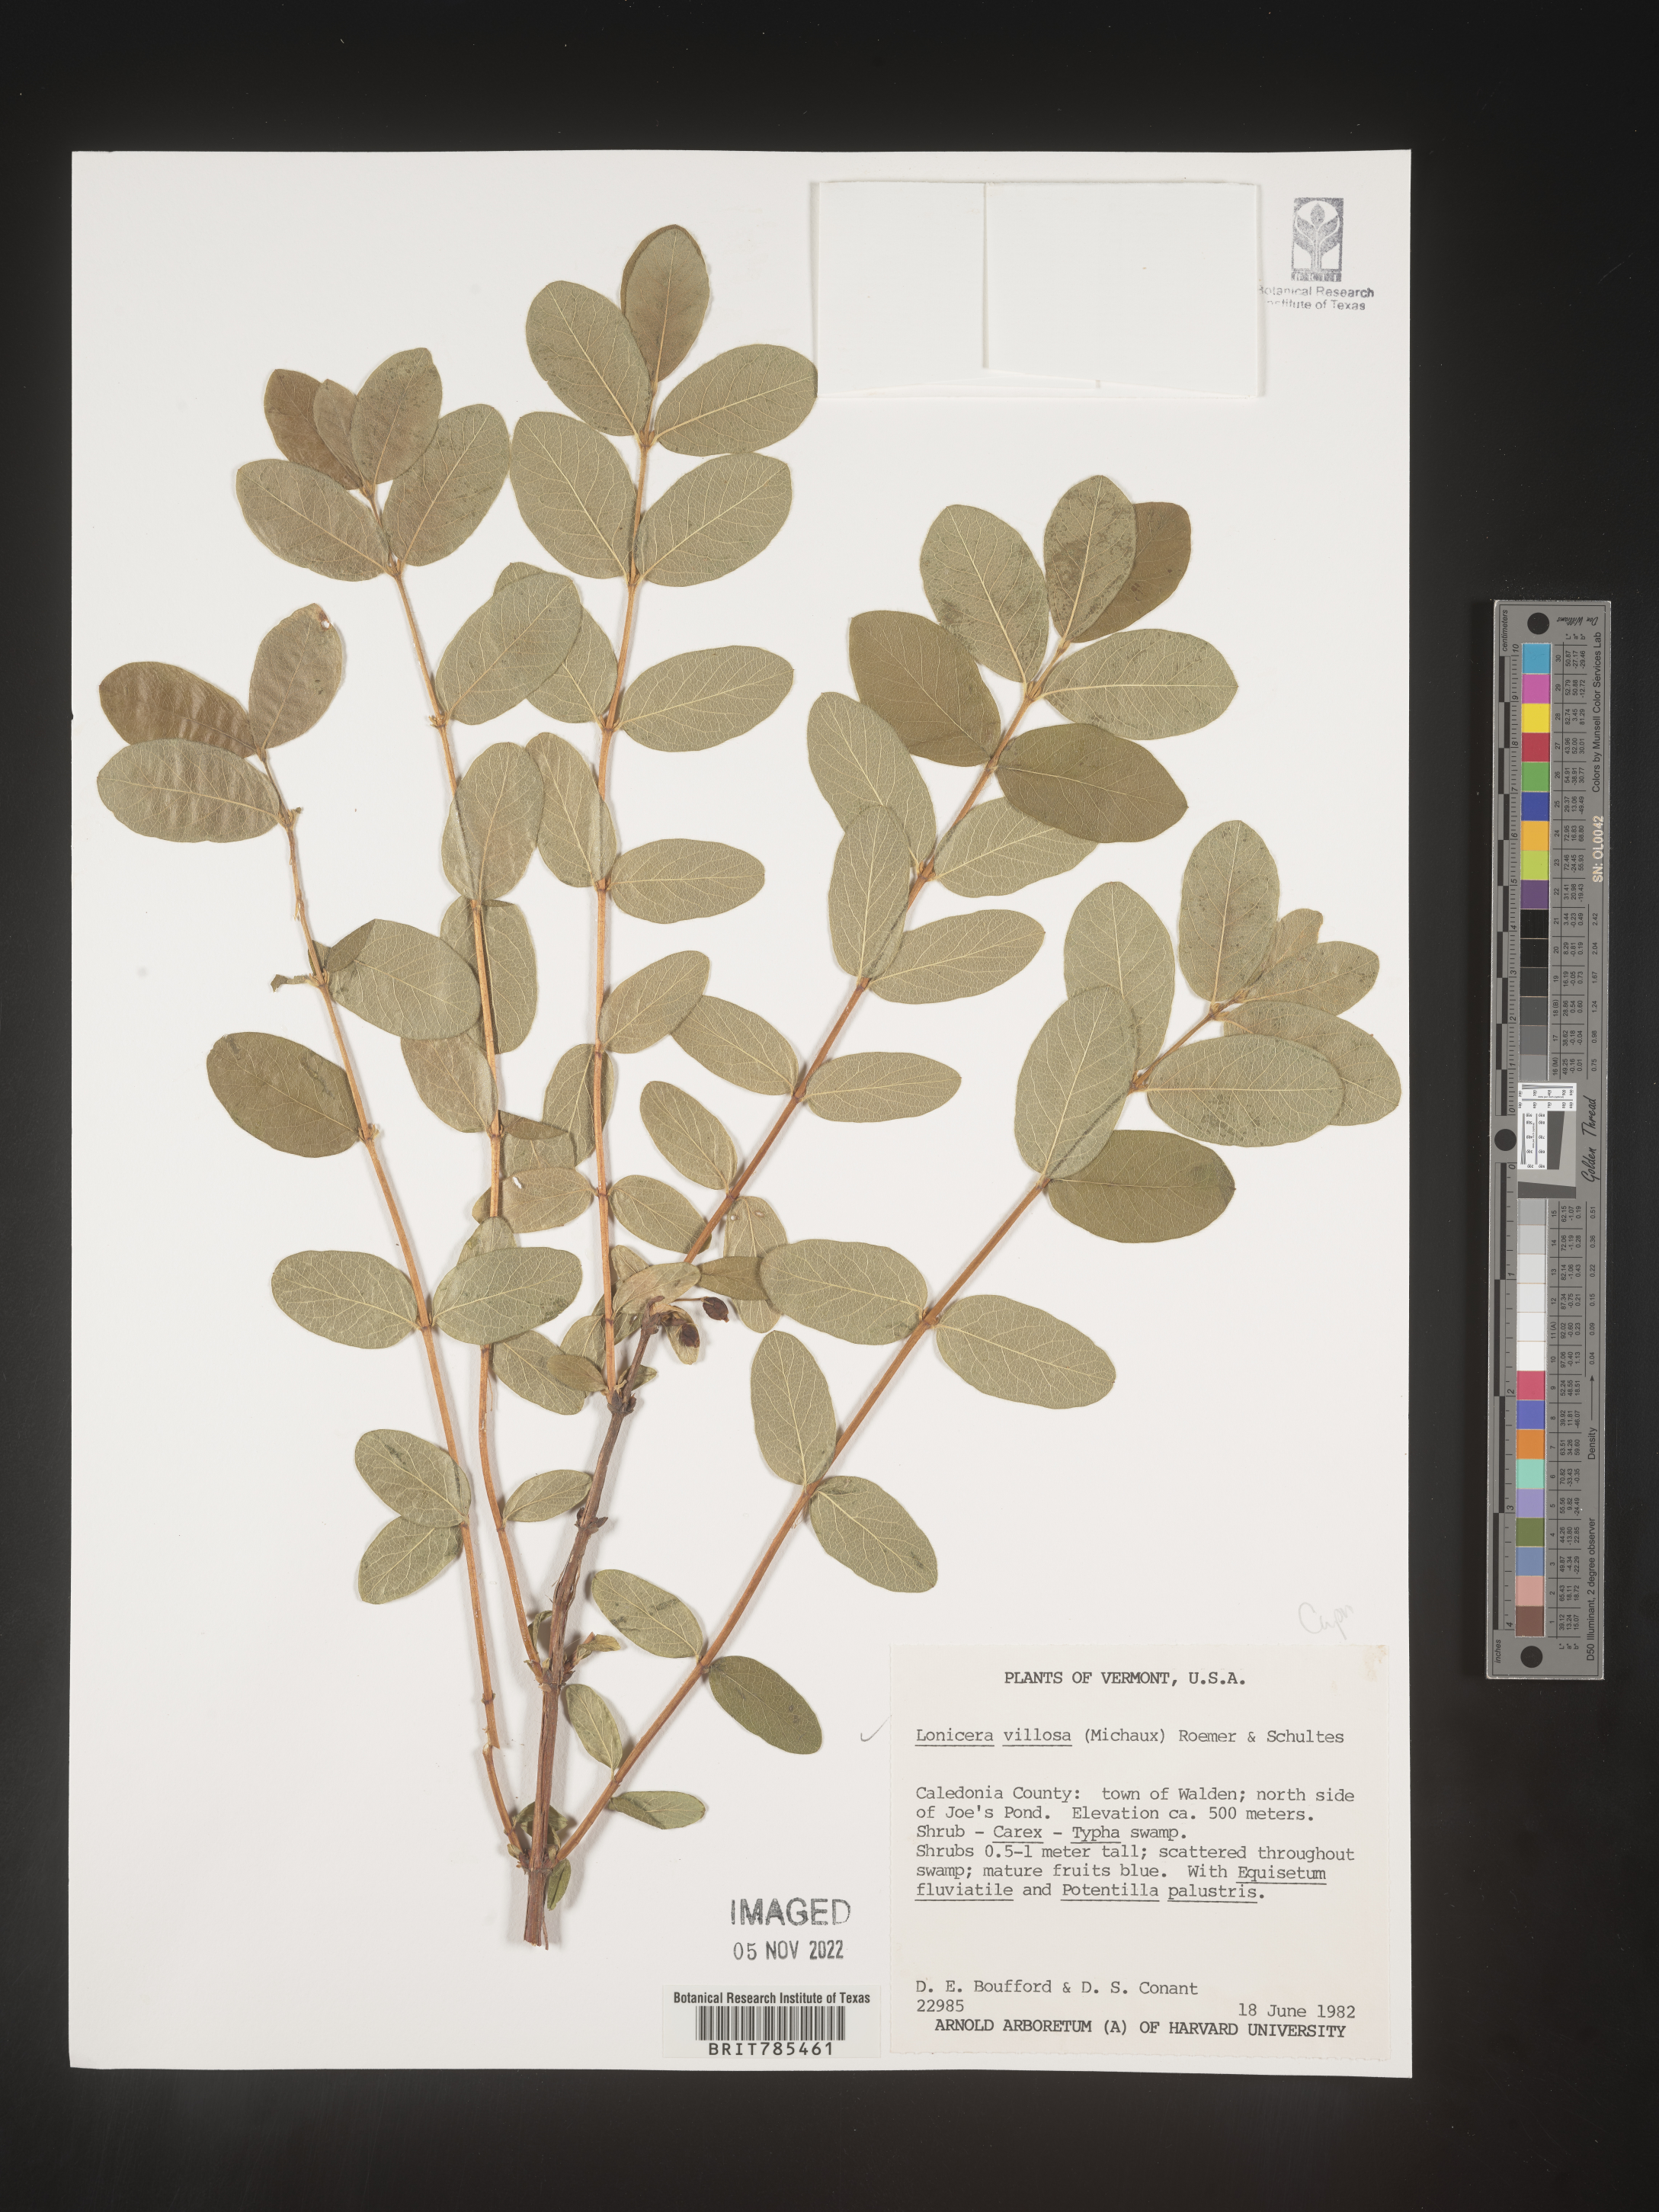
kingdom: Plantae
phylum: Tracheophyta
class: Magnoliopsida
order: Dipsacales
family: Caprifoliaceae
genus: Lonicera
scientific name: Lonicera
